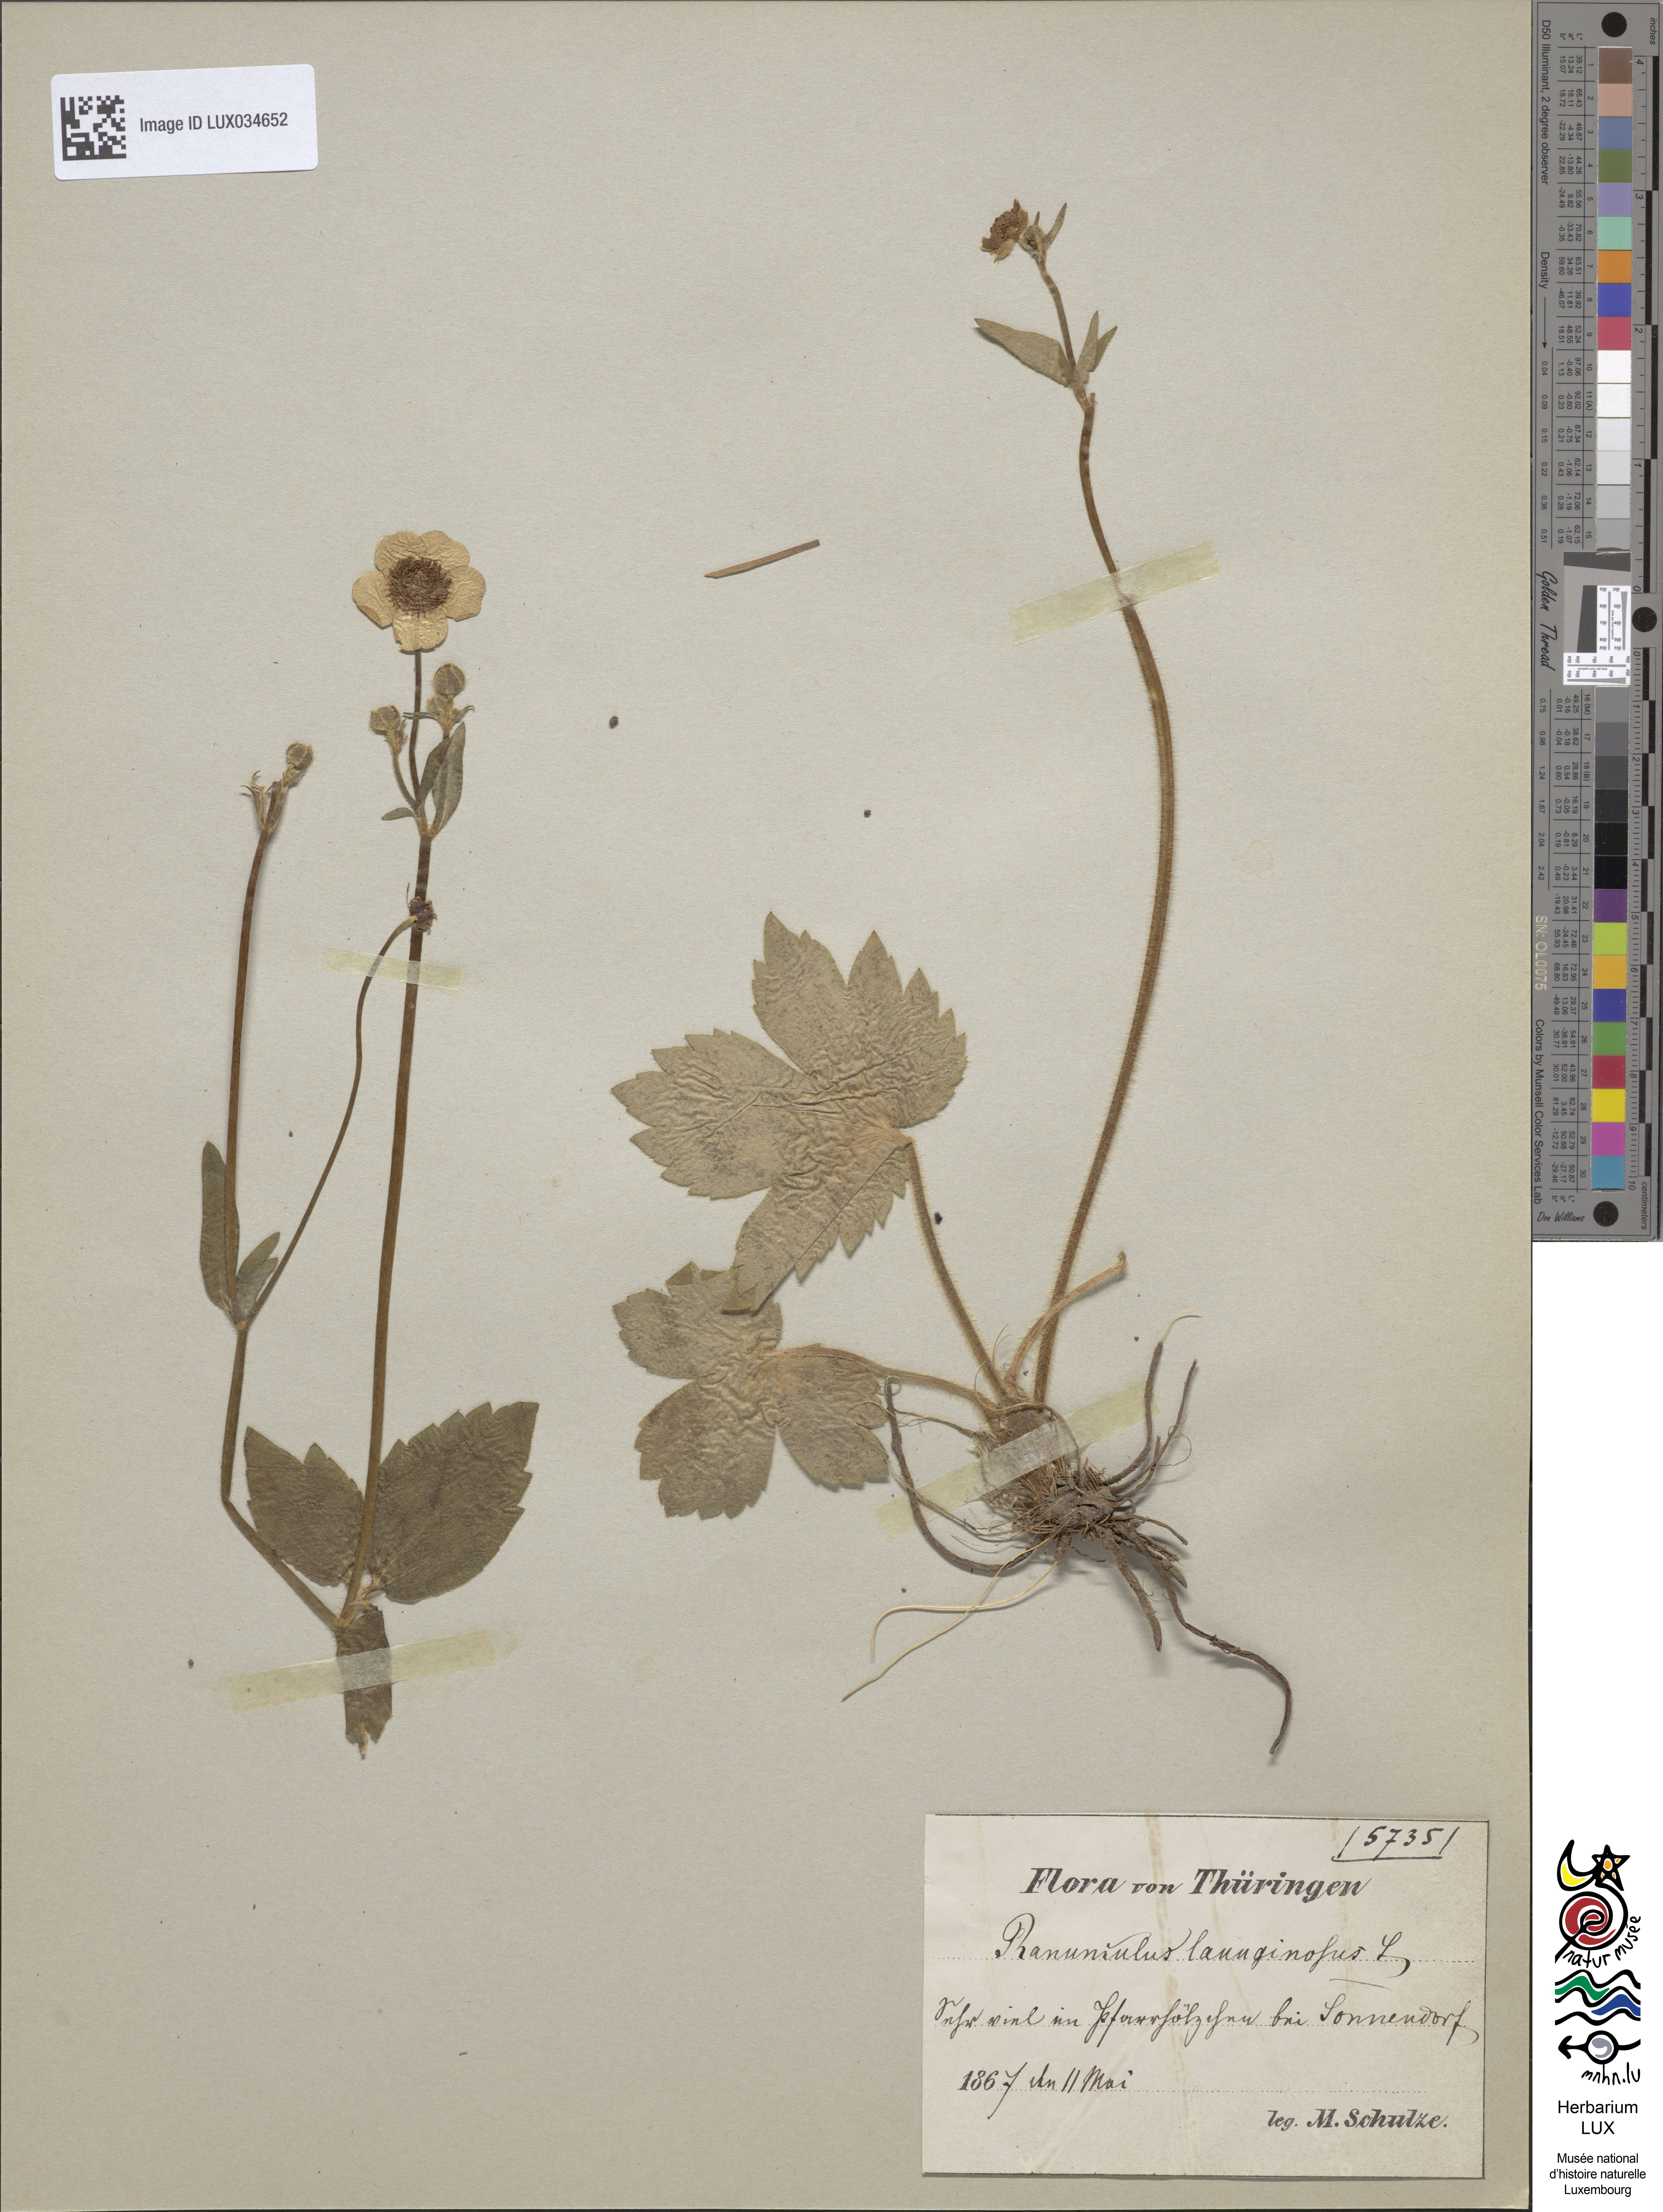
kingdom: Plantae
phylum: Tracheophyta
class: Magnoliopsida
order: Ranunculales
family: Ranunculaceae
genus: Ranunculus
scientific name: Ranunculus lanuginosus
